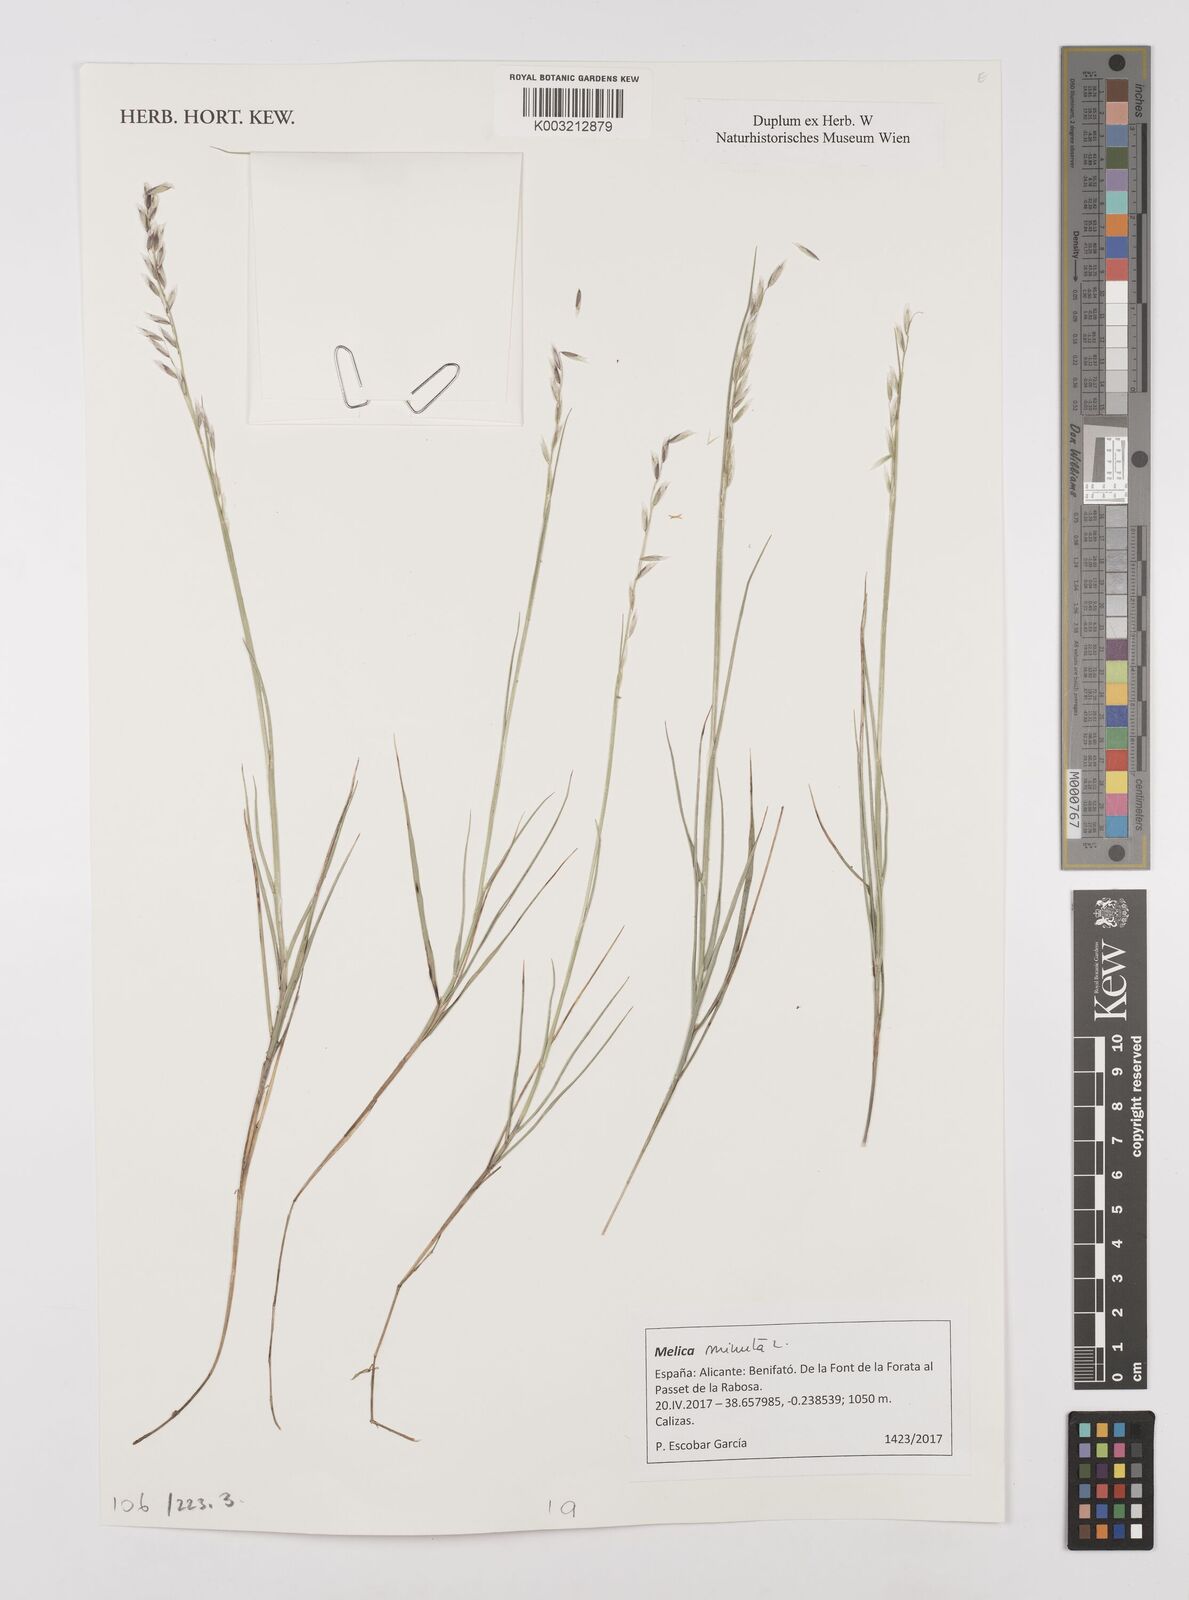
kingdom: Plantae
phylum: Tracheophyta
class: Liliopsida
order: Poales
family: Poaceae
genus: Melica
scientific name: Melica minuta
